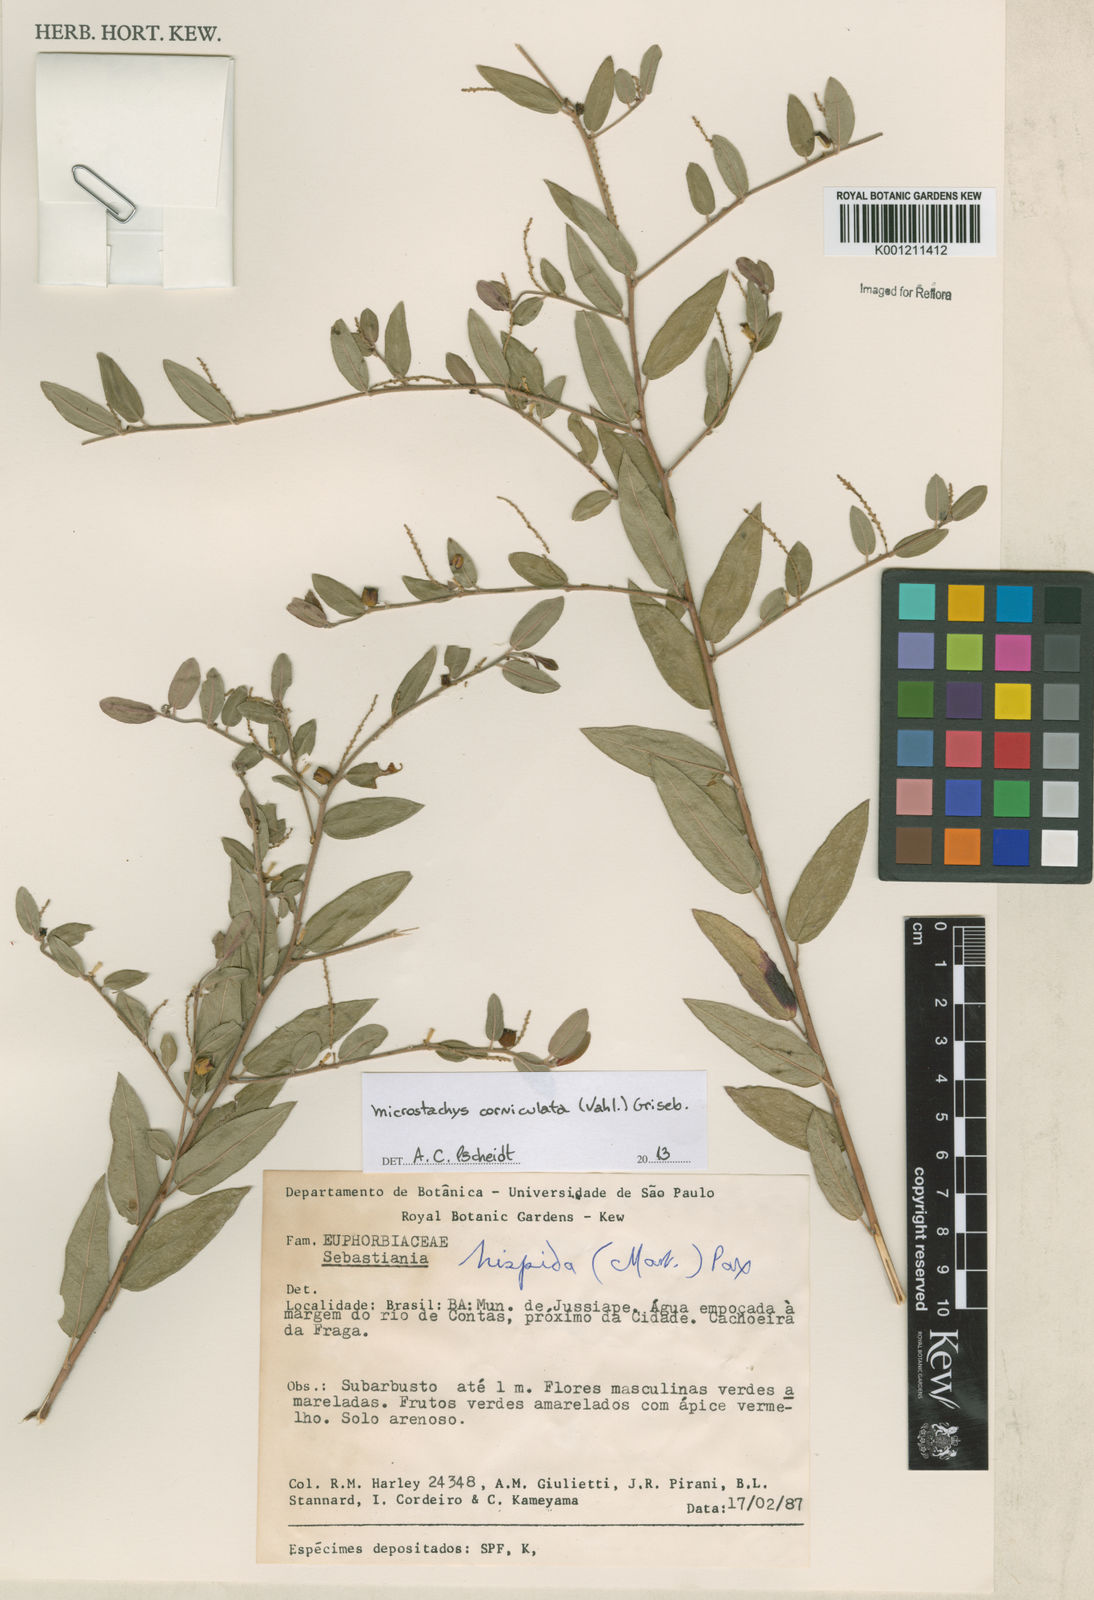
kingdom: Plantae
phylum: Tracheophyta
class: Magnoliopsida
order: Malpighiales
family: Euphorbiaceae
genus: Microstachys
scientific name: Microstachys corniculata
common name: Hato tejas
